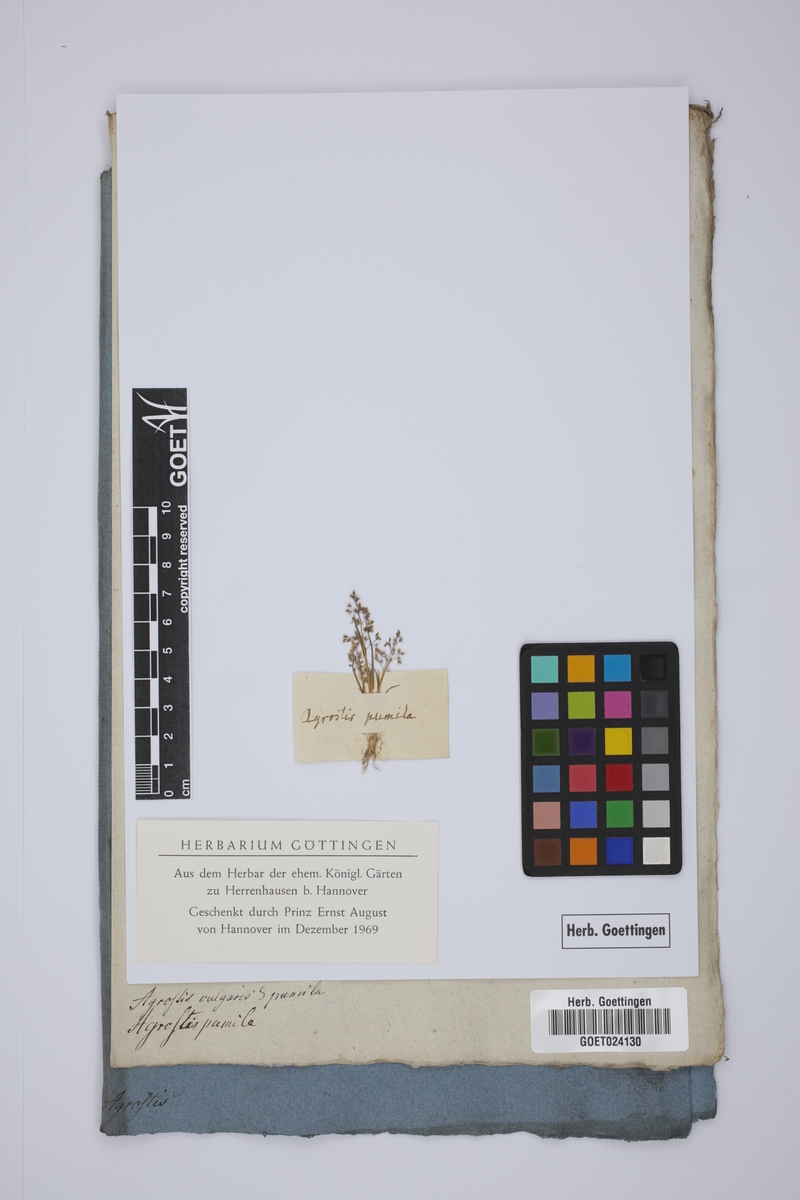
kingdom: Plantae
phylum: Tracheophyta
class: Liliopsida
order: Poales
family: Poaceae
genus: Agrostis
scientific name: Agrostis capillaris
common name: Colonial bentgrass
